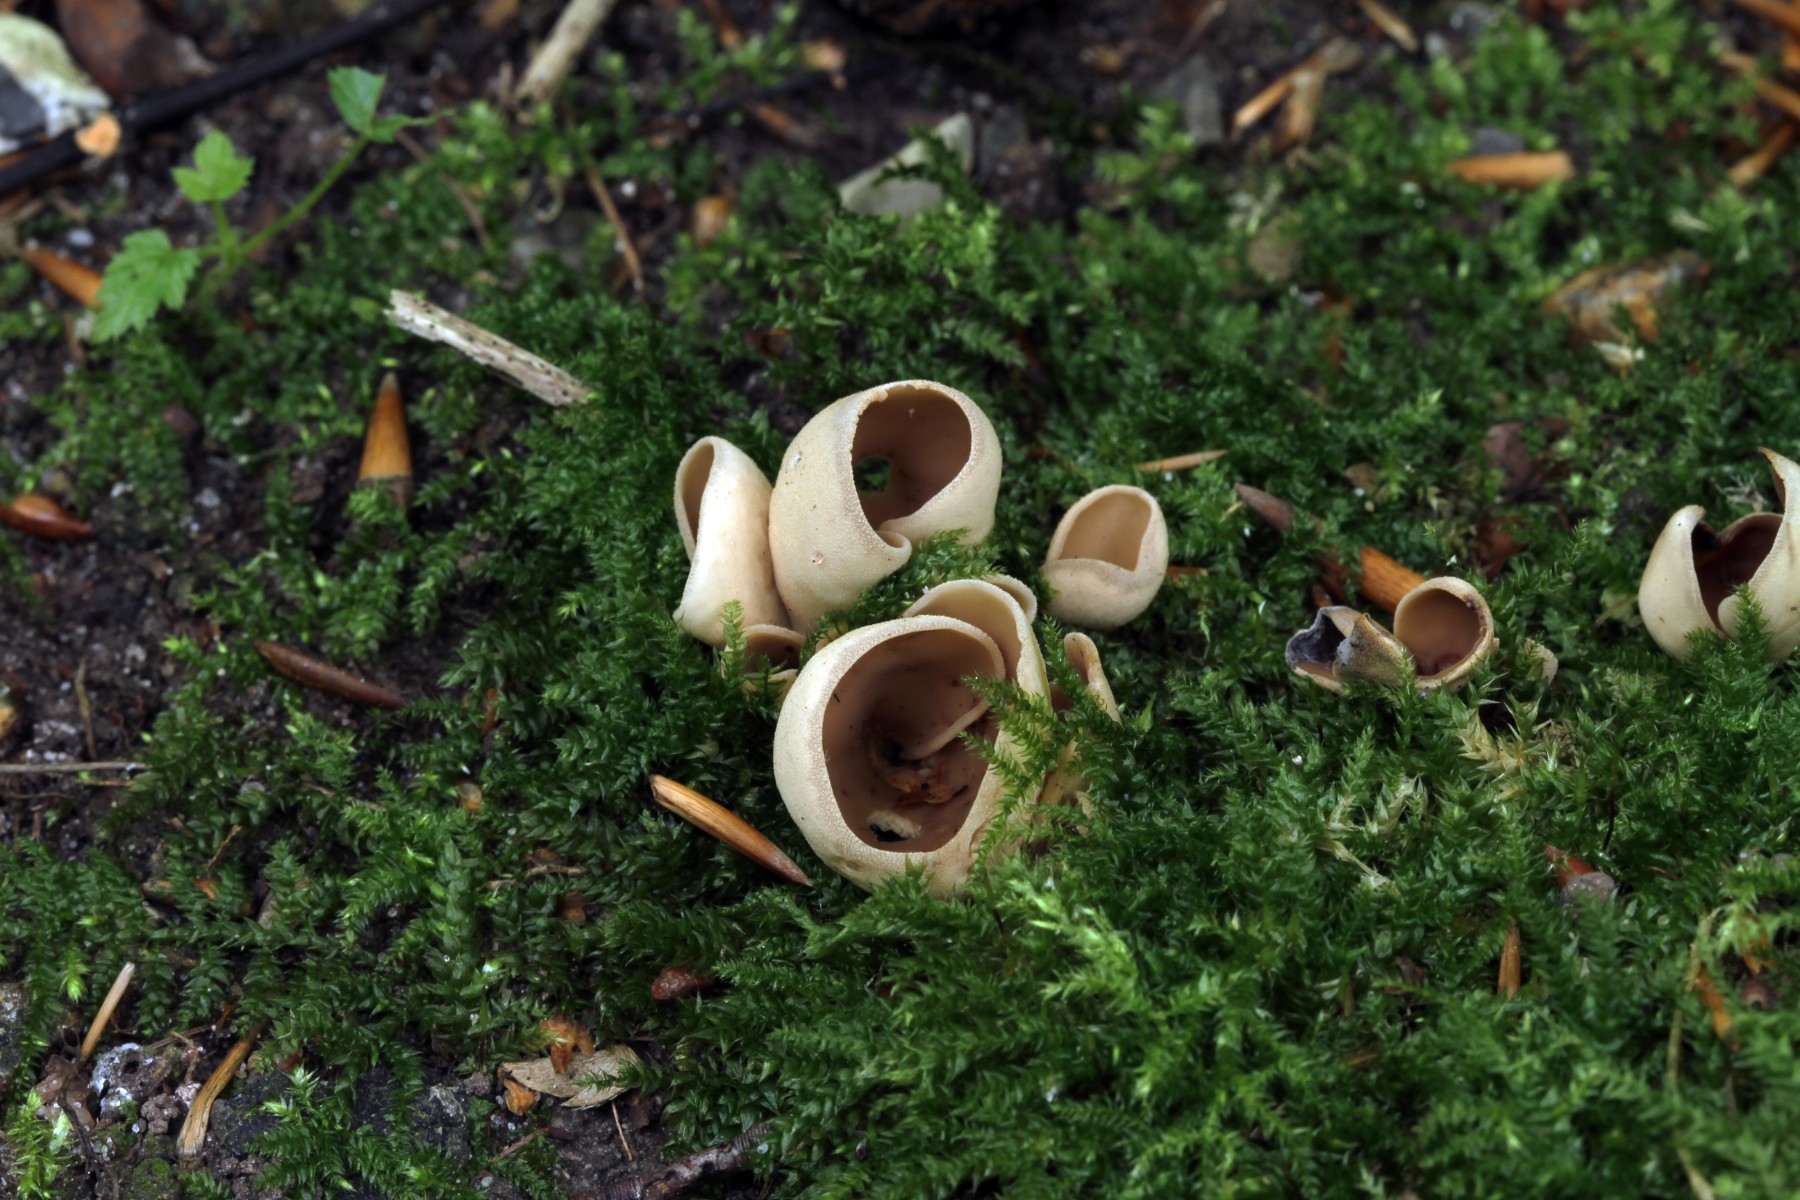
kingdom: Fungi
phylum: Ascomycota
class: Pezizomycetes
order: Pezizales
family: Otideaceae
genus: Otidea
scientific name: Otidea alutacea
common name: læder-ørebæger
